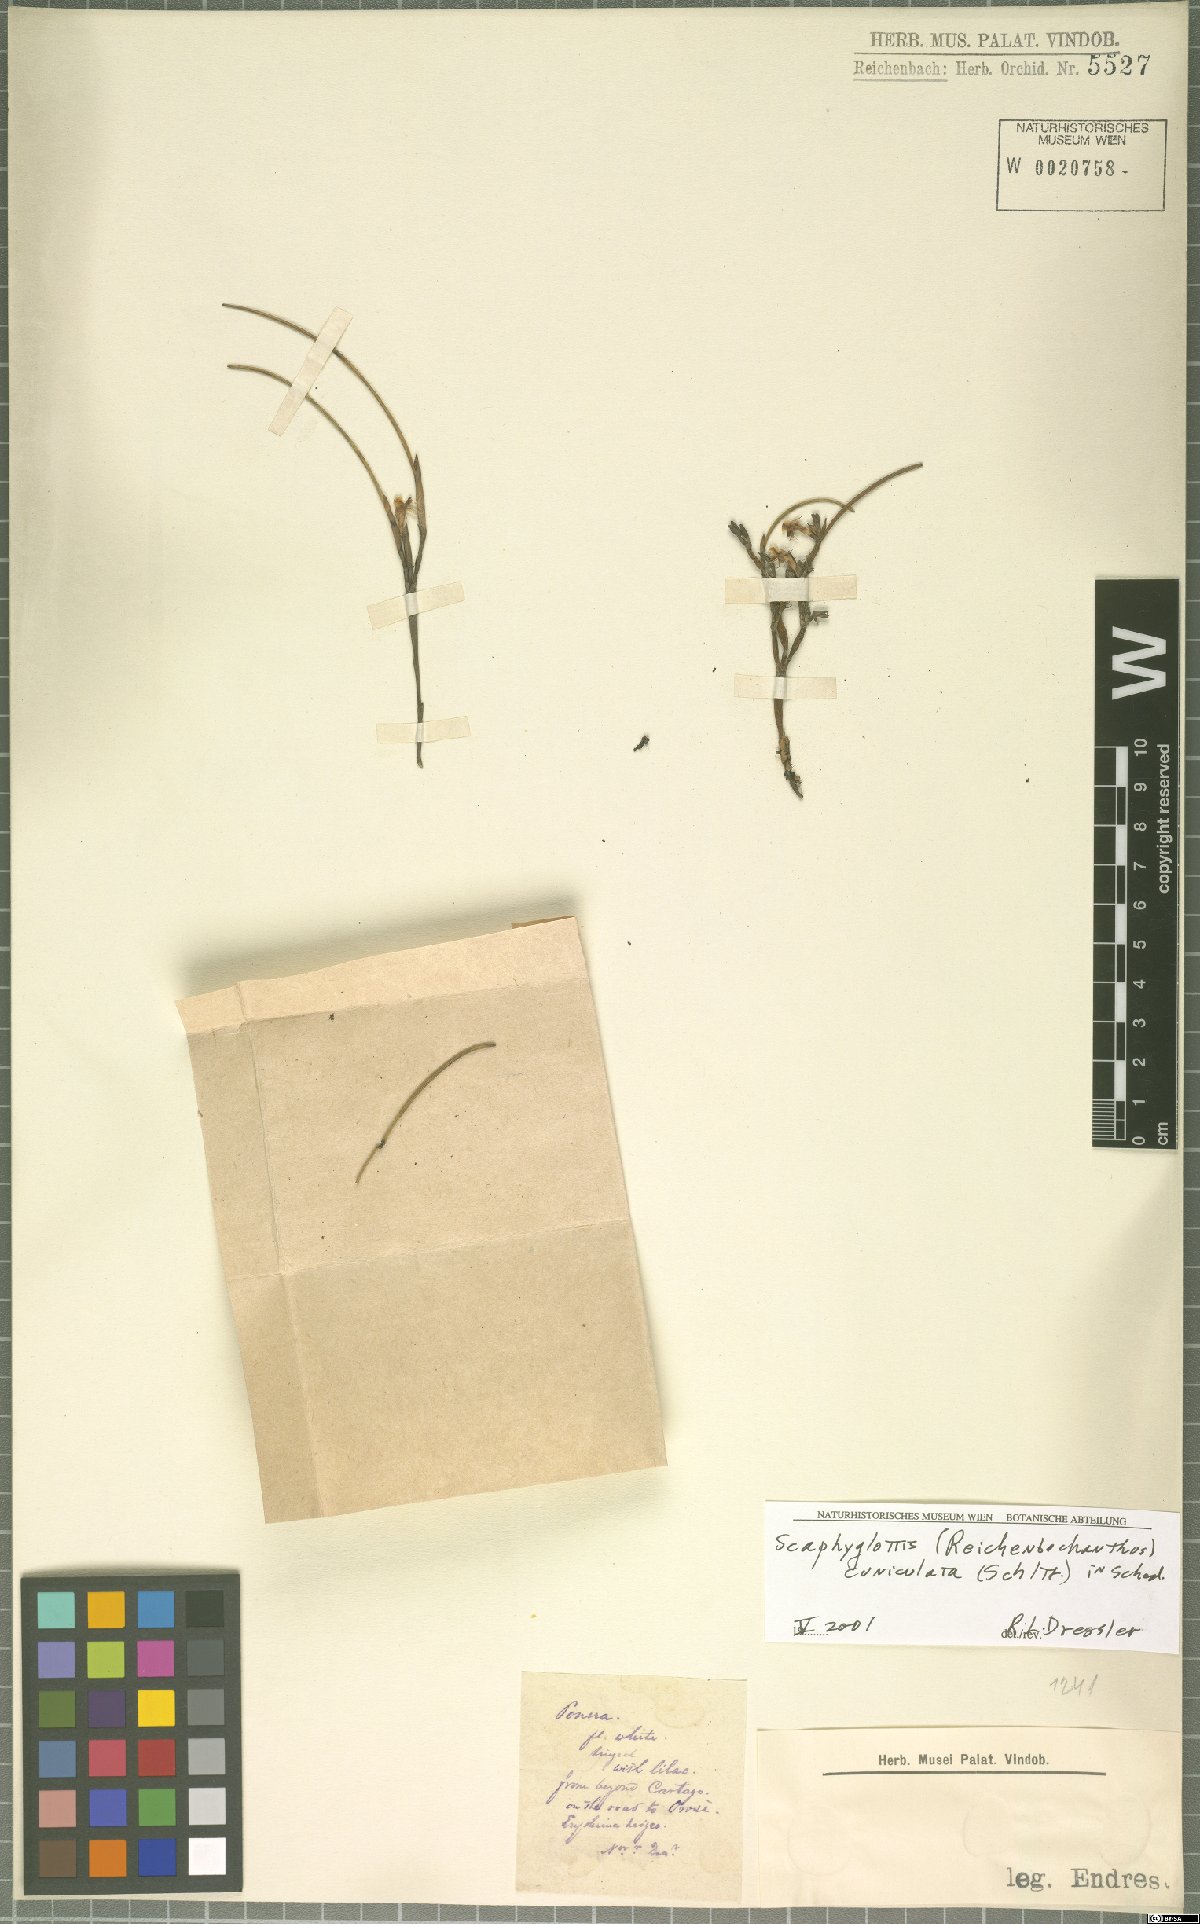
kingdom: Plantae
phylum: Tracheophyta
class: Liliopsida
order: Asparagales
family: Orchidaceae
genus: Scaphyglottis
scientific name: Scaphyglottis cuniculata
